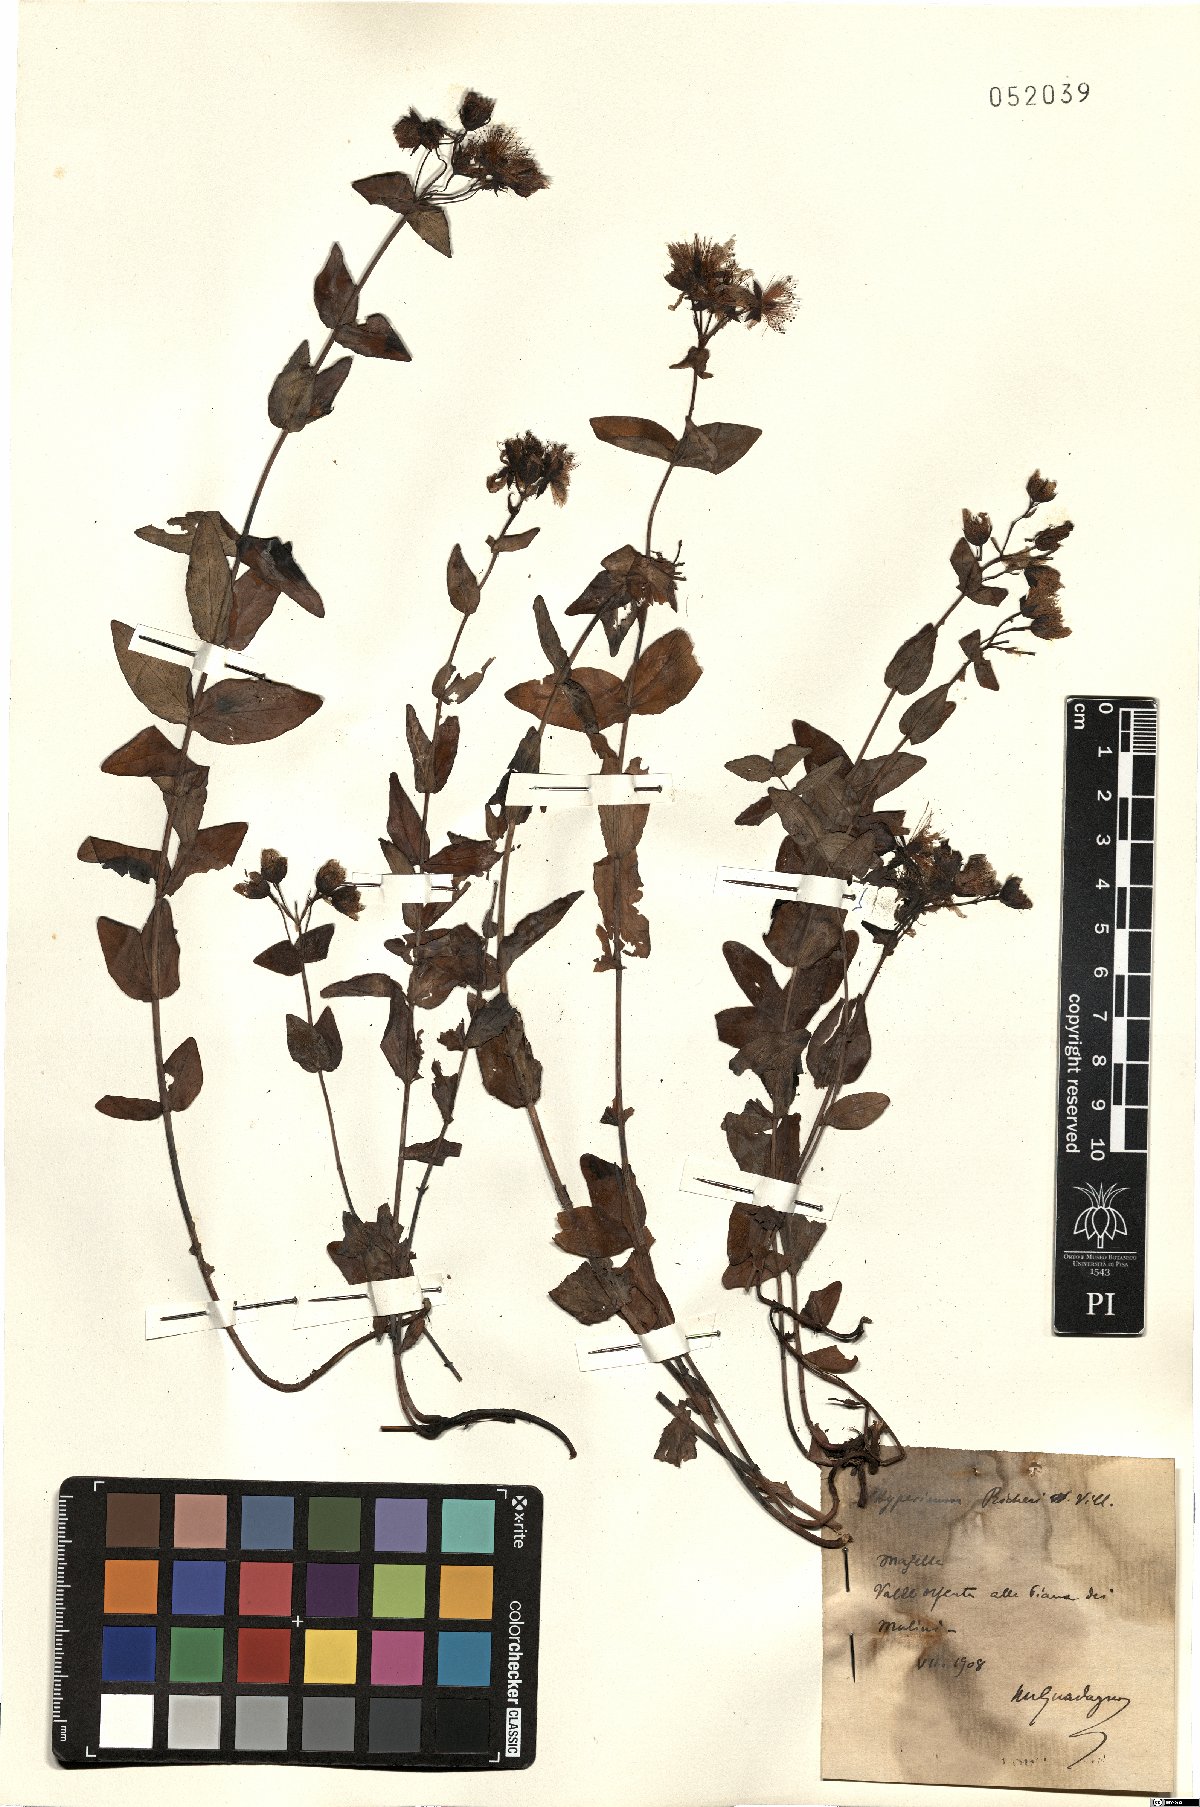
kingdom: Plantae
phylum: Tracheophyta
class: Magnoliopsida
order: Malpighiales
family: Hypericaceae
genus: Hypericum
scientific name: Hypericum richeri
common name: Alpine st john's-wort
